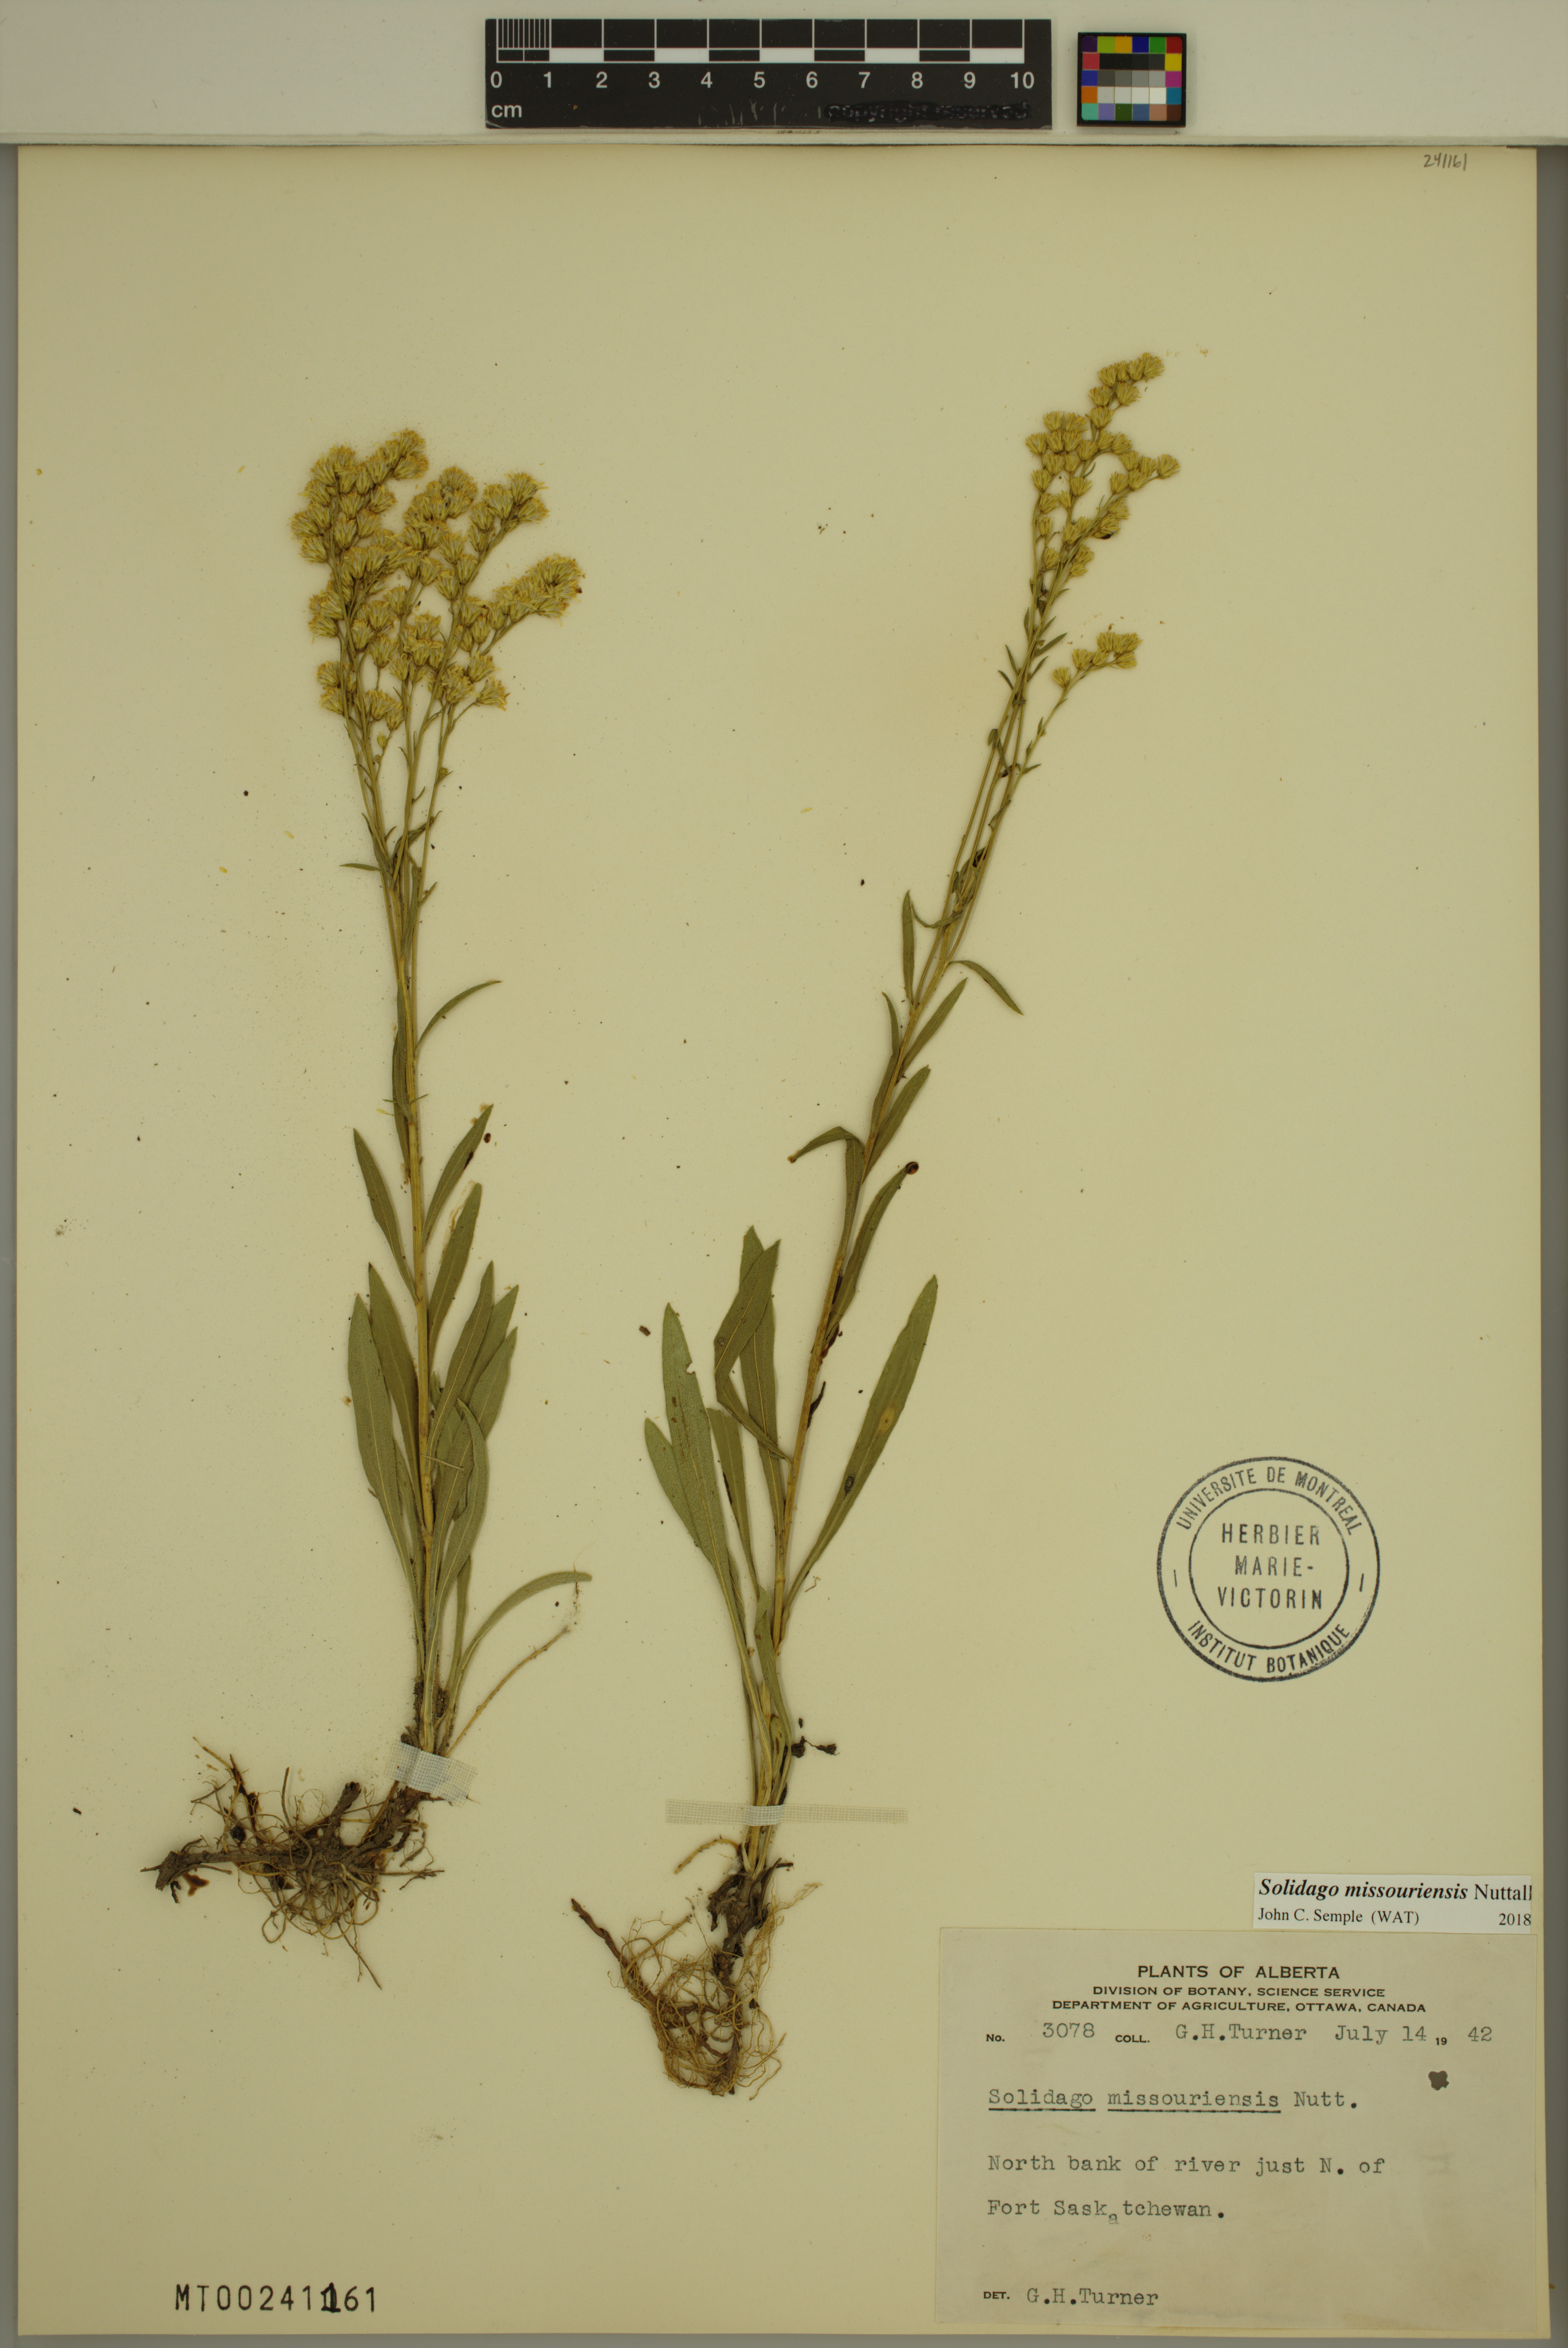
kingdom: Plantae
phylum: Tracheophyta
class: Magnoliopsida
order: Asterales
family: Asteraceae
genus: Solidago
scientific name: Solidago missouriensis
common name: Prairie goldenrod
